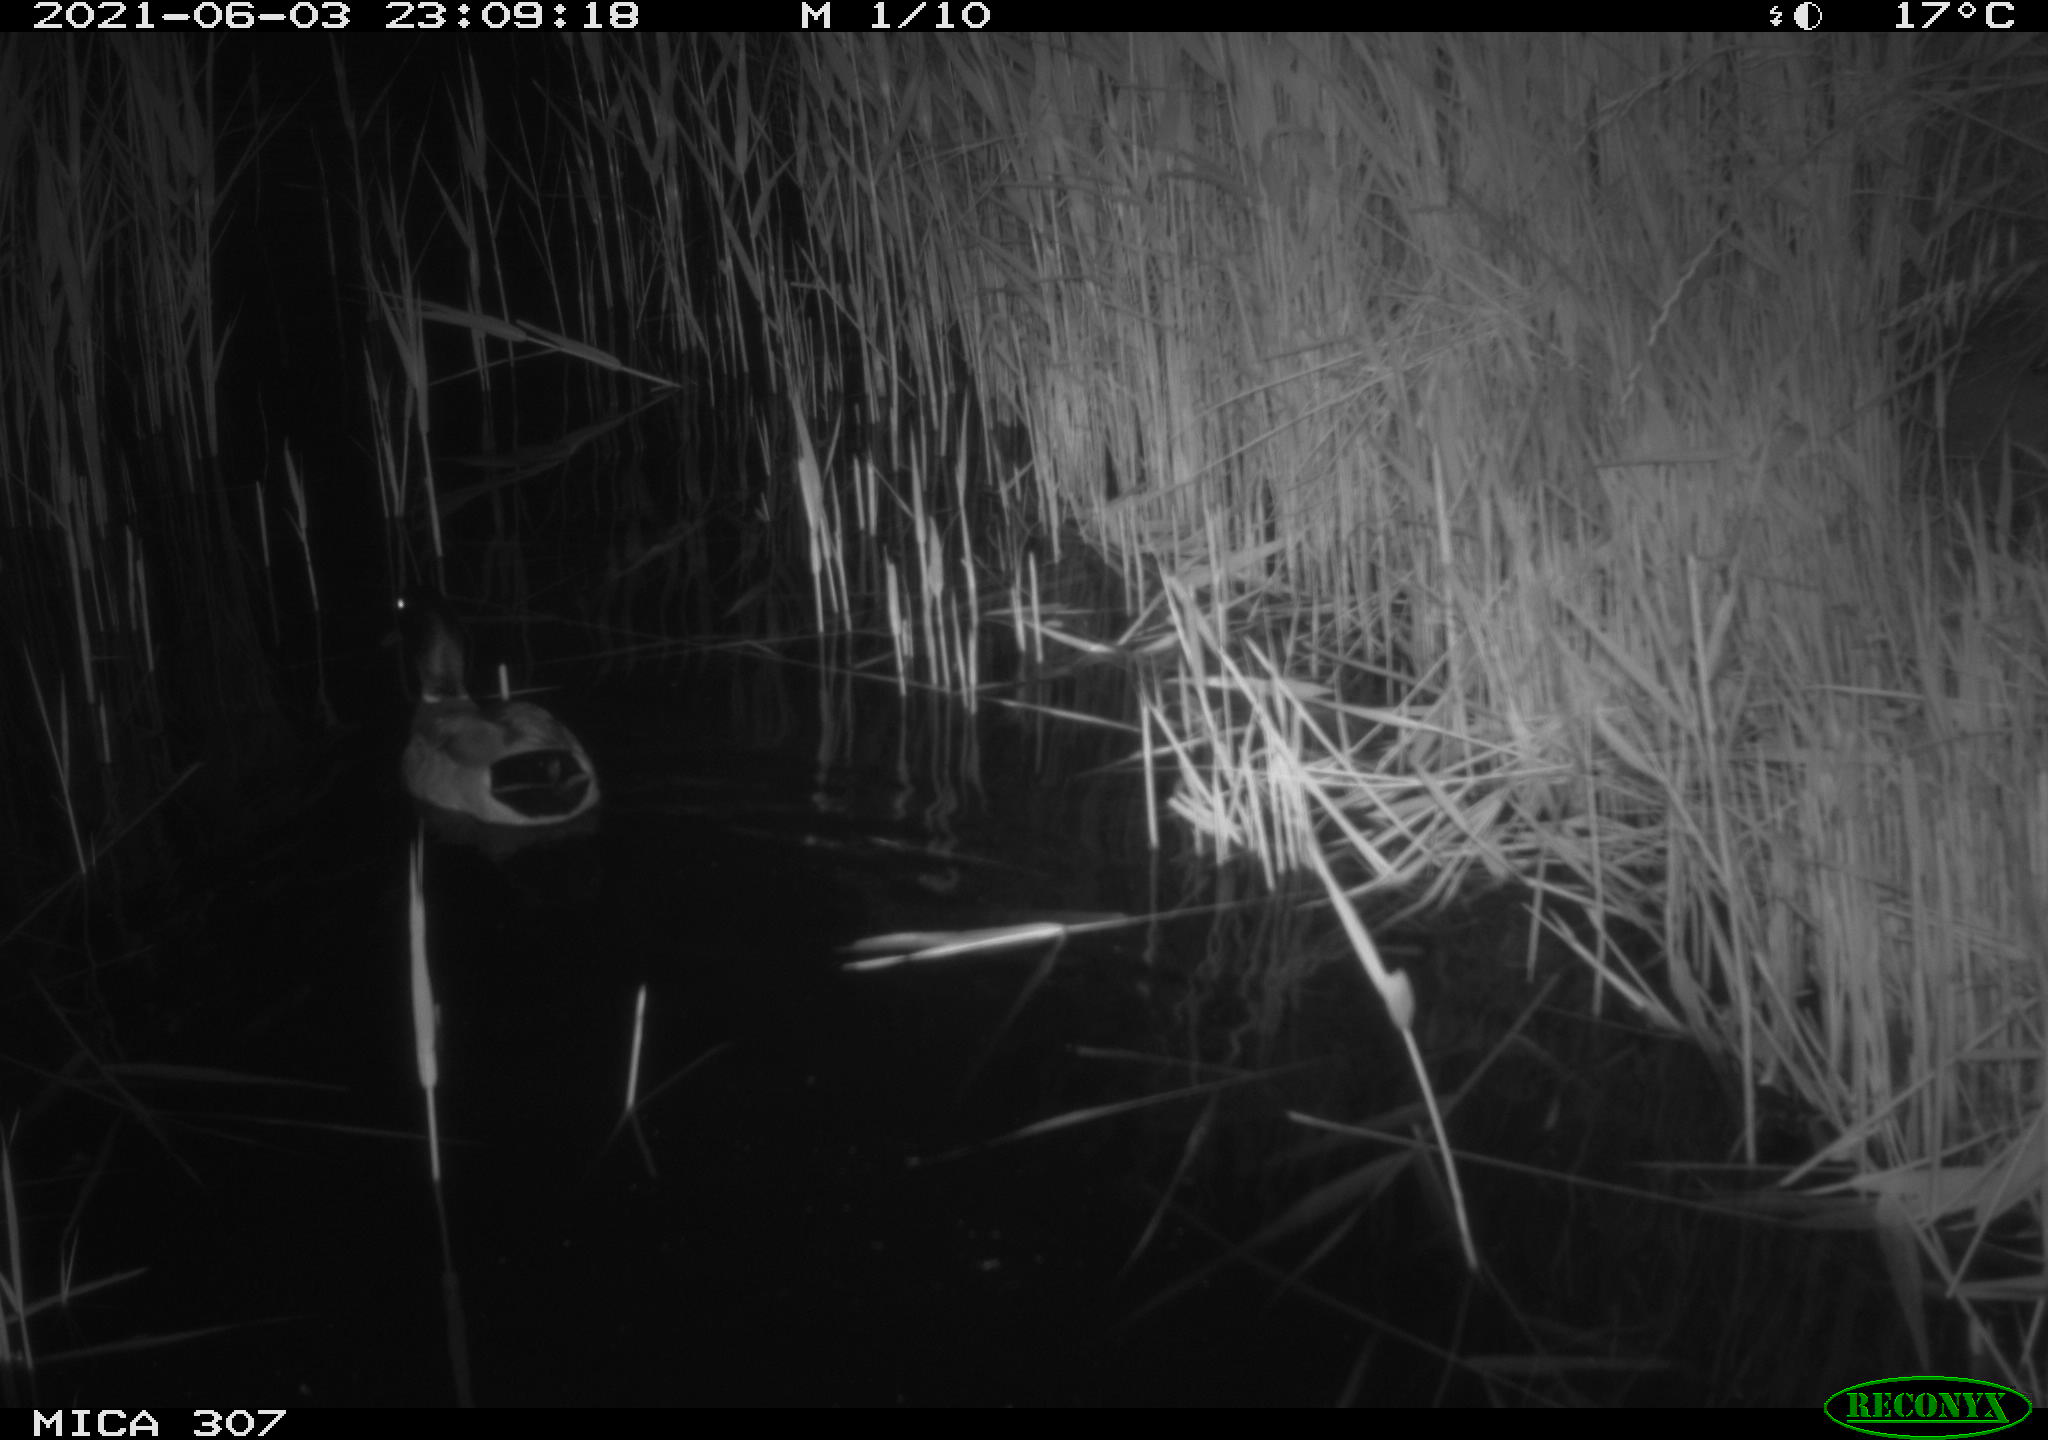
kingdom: Animalia
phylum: Chordata
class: Aves
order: Anseriformes
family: Anatidae
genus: Anas
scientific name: Anas platyrhynchos
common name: Mallard
